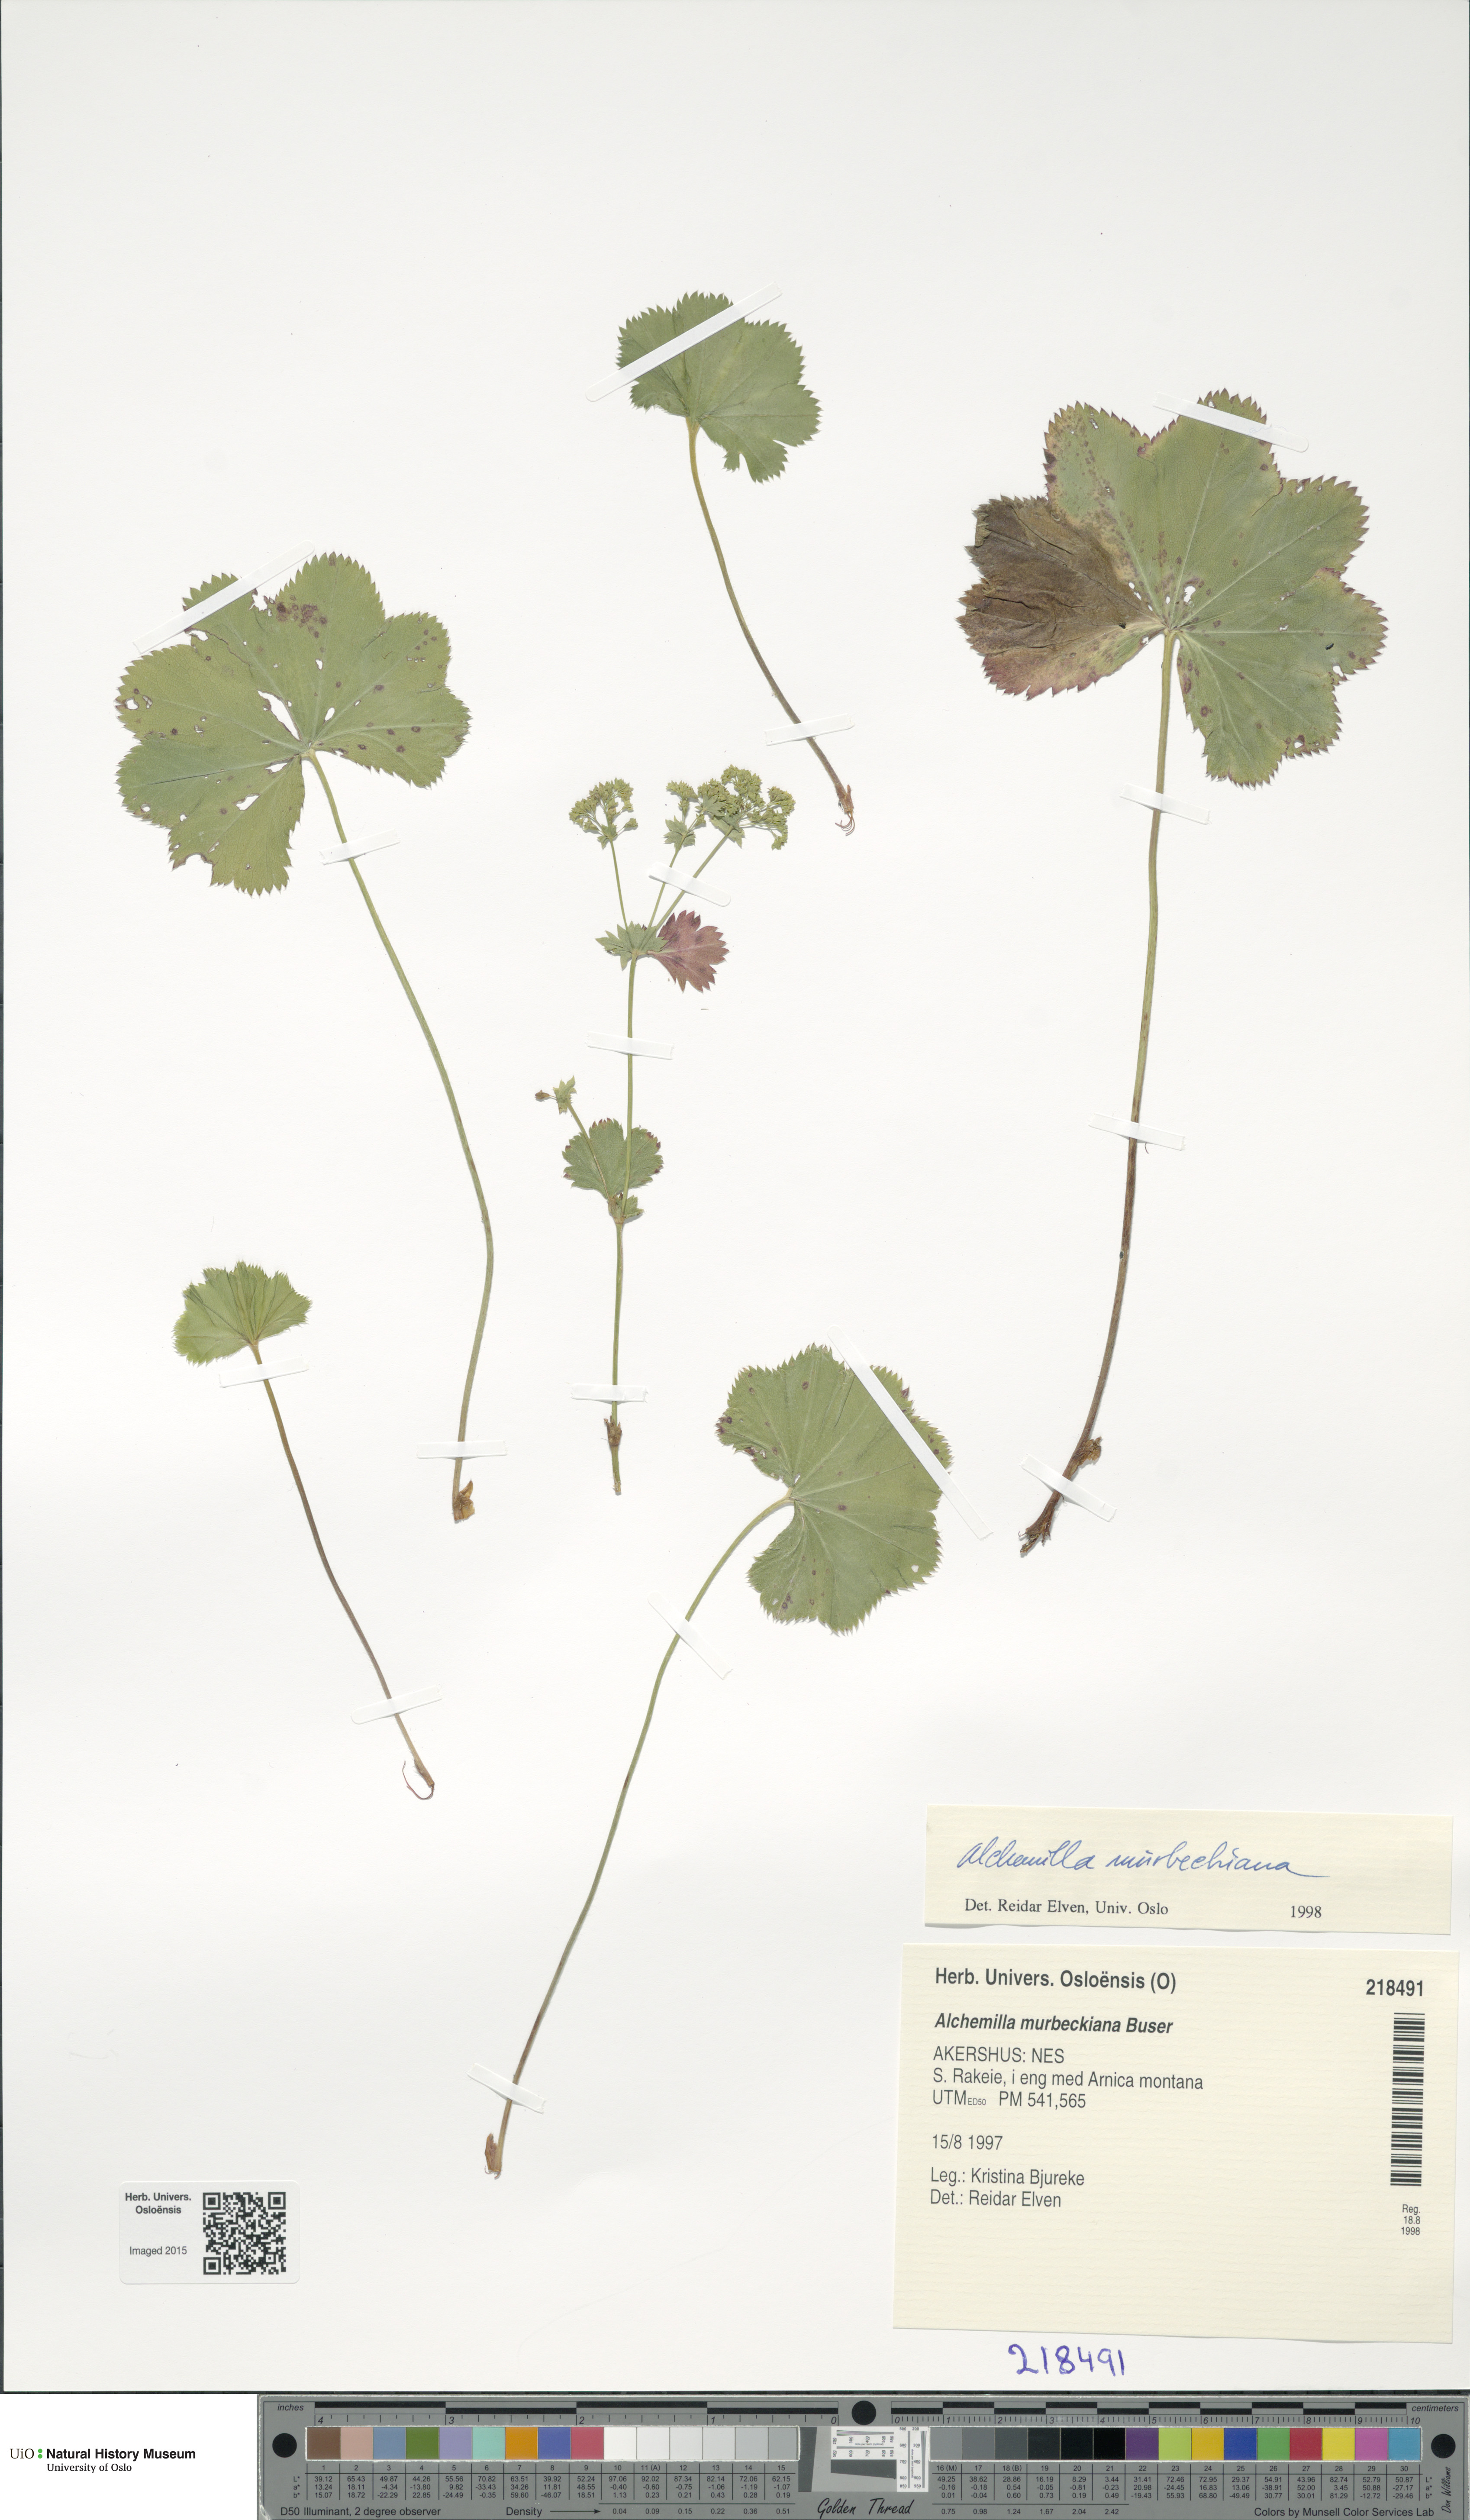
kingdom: Plantae
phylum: Tracheophyta
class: Magnoliopsida
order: Rosales
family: Rosaceae
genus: Alchemilla
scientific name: Alchemilla murbeckiana
